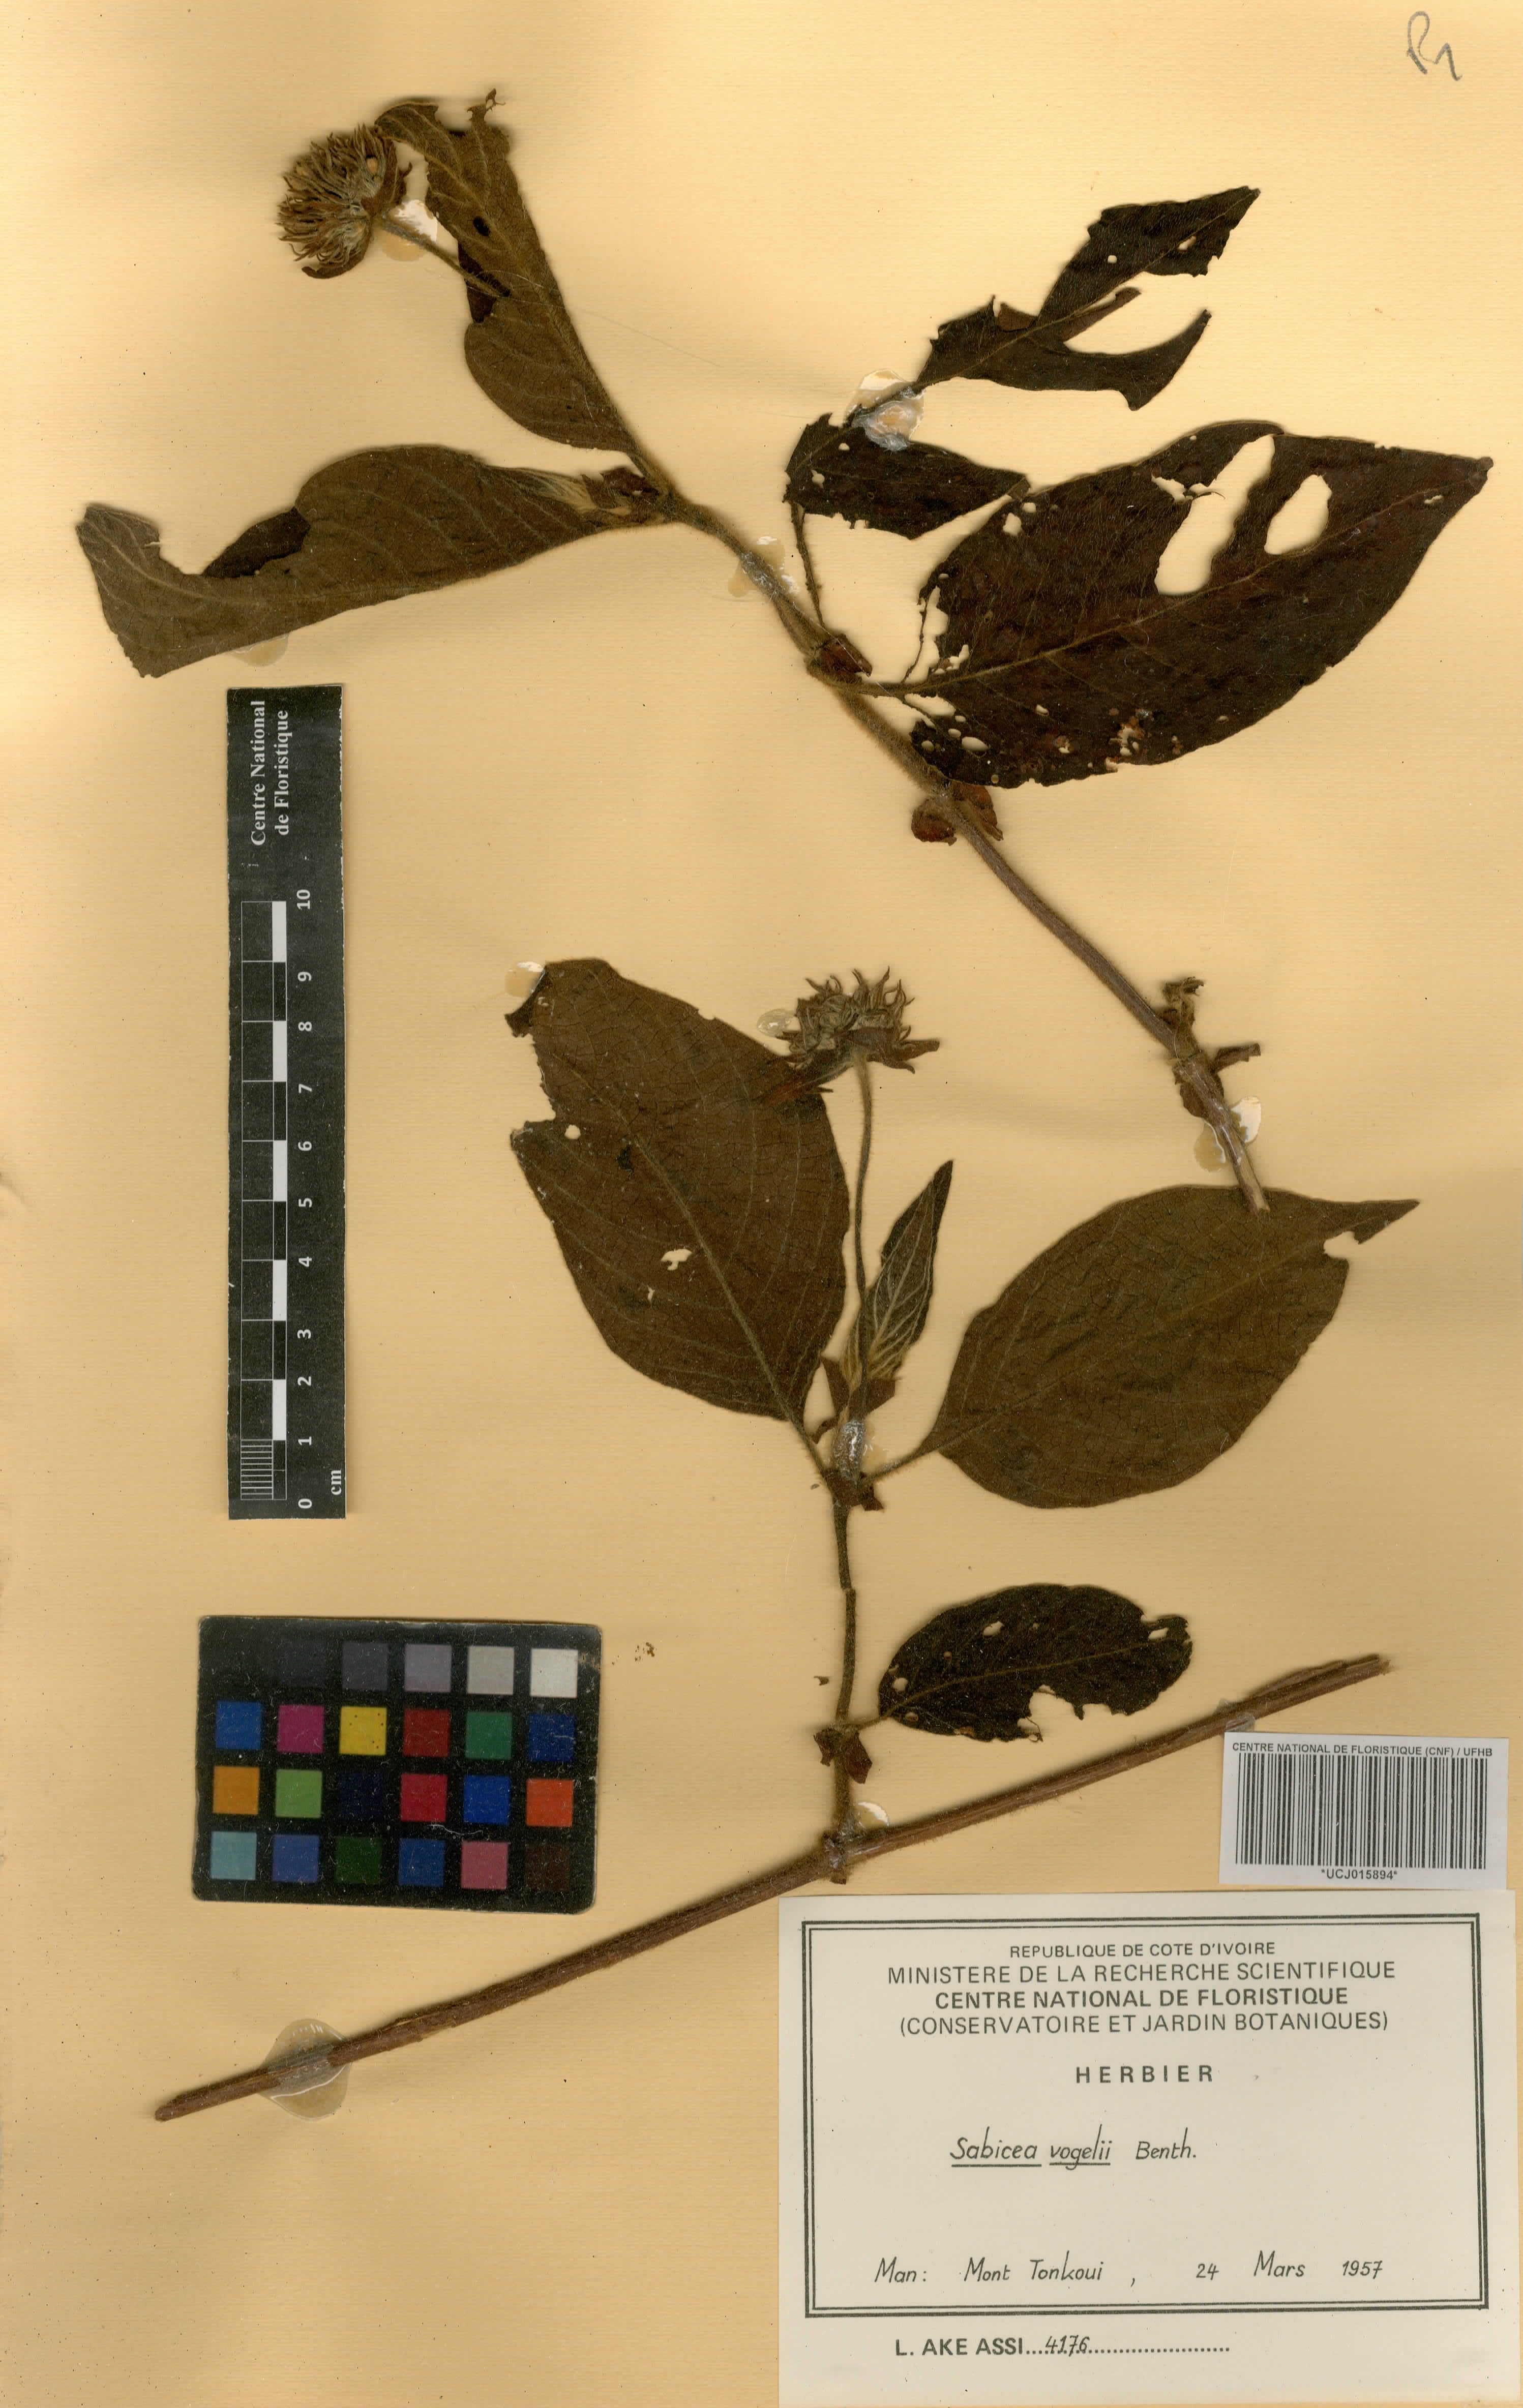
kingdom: Plantae
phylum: Tracheophyta
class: Magnoliopsida
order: Gentianales
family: Rubiaceae
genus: Sabicea
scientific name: Sabicea vogelii
